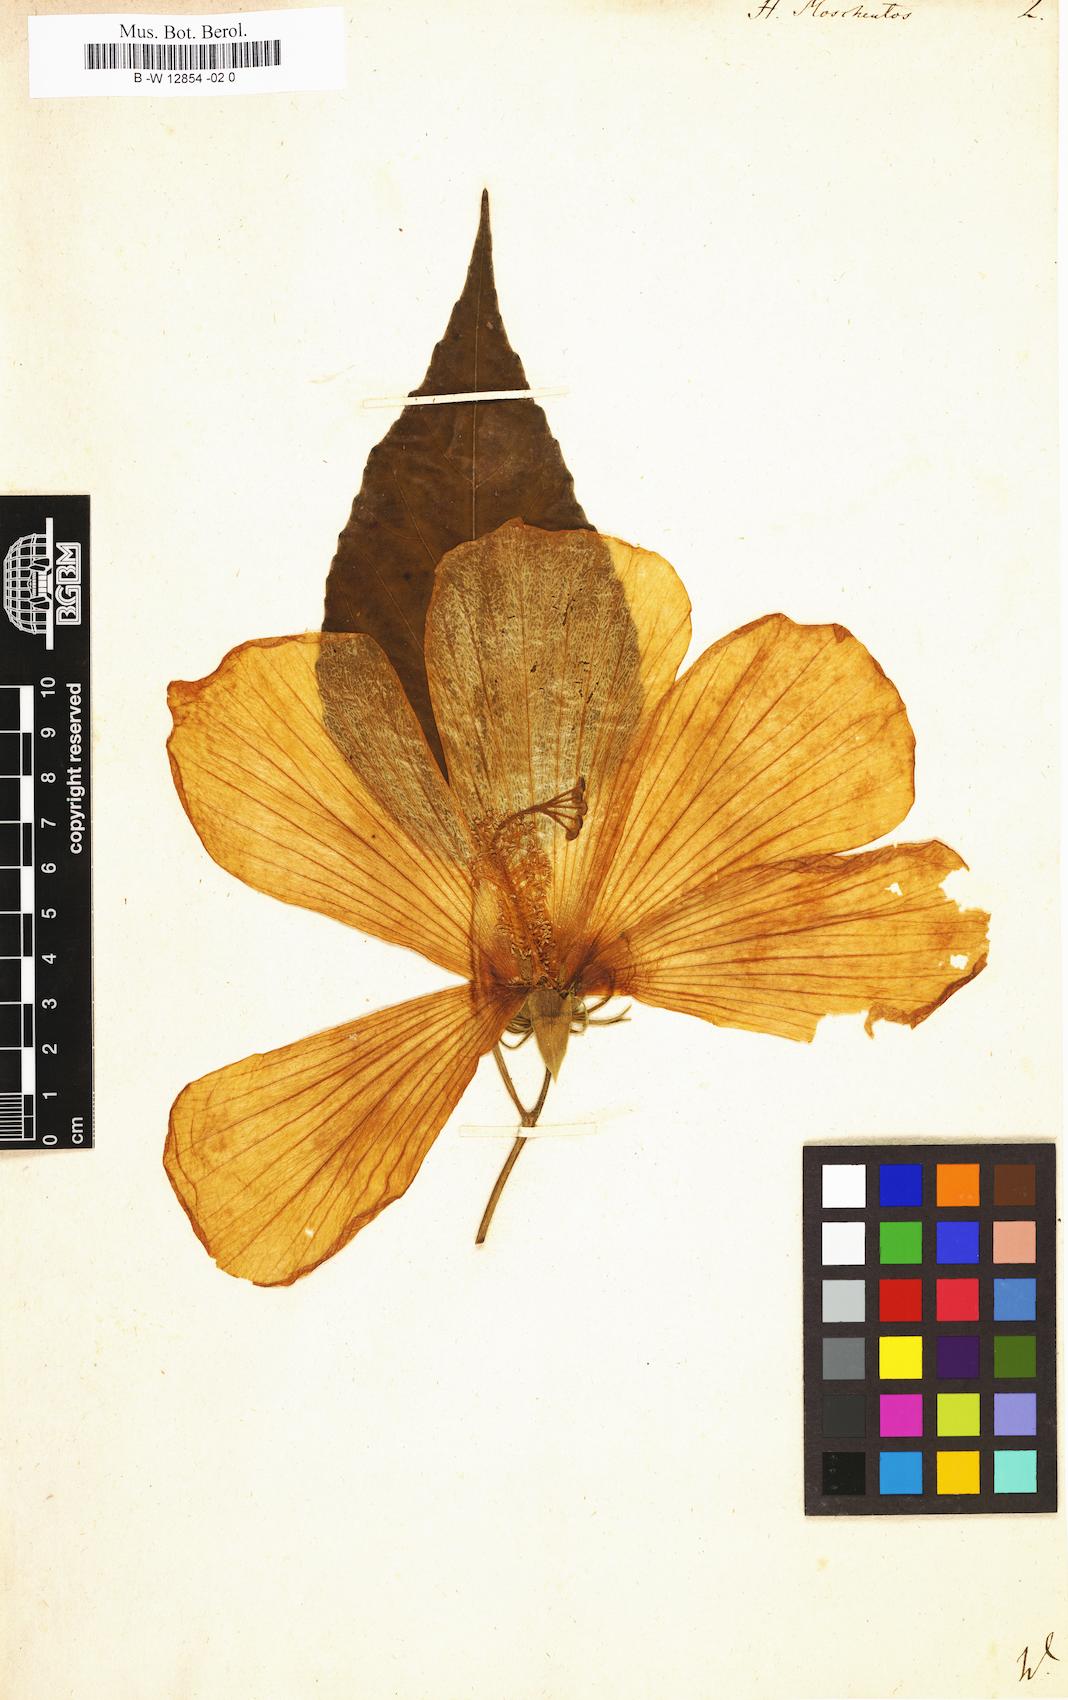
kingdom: Plantae
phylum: Tracheophyta
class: Magnoliopsida
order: Malvales
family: Malvaceae
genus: Hibiscus
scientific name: Hibiscus moscheutos
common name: Common rose-mallow
